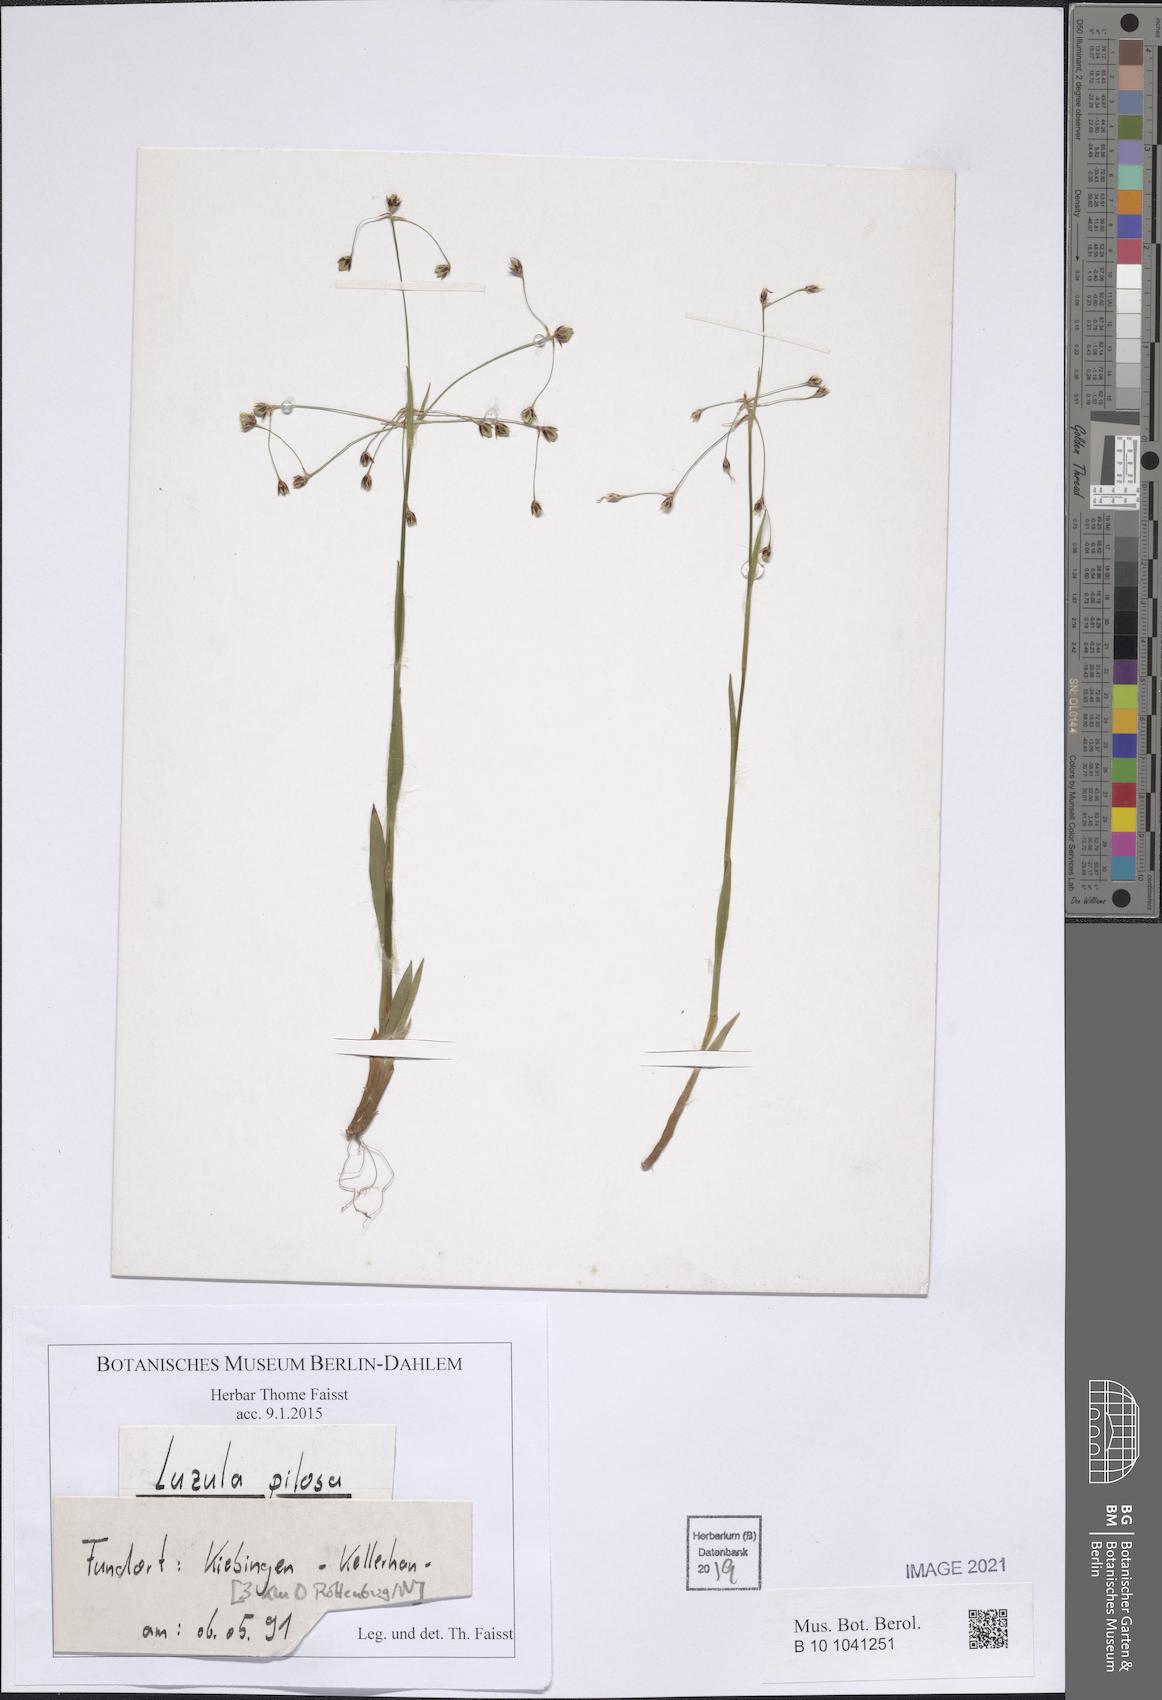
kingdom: Plantae
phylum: Tracheophyta
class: Liliopsida
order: Poales
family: Juncaceae
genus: Luzula
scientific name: Luzula pilosa
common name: Hairy wood-rush
